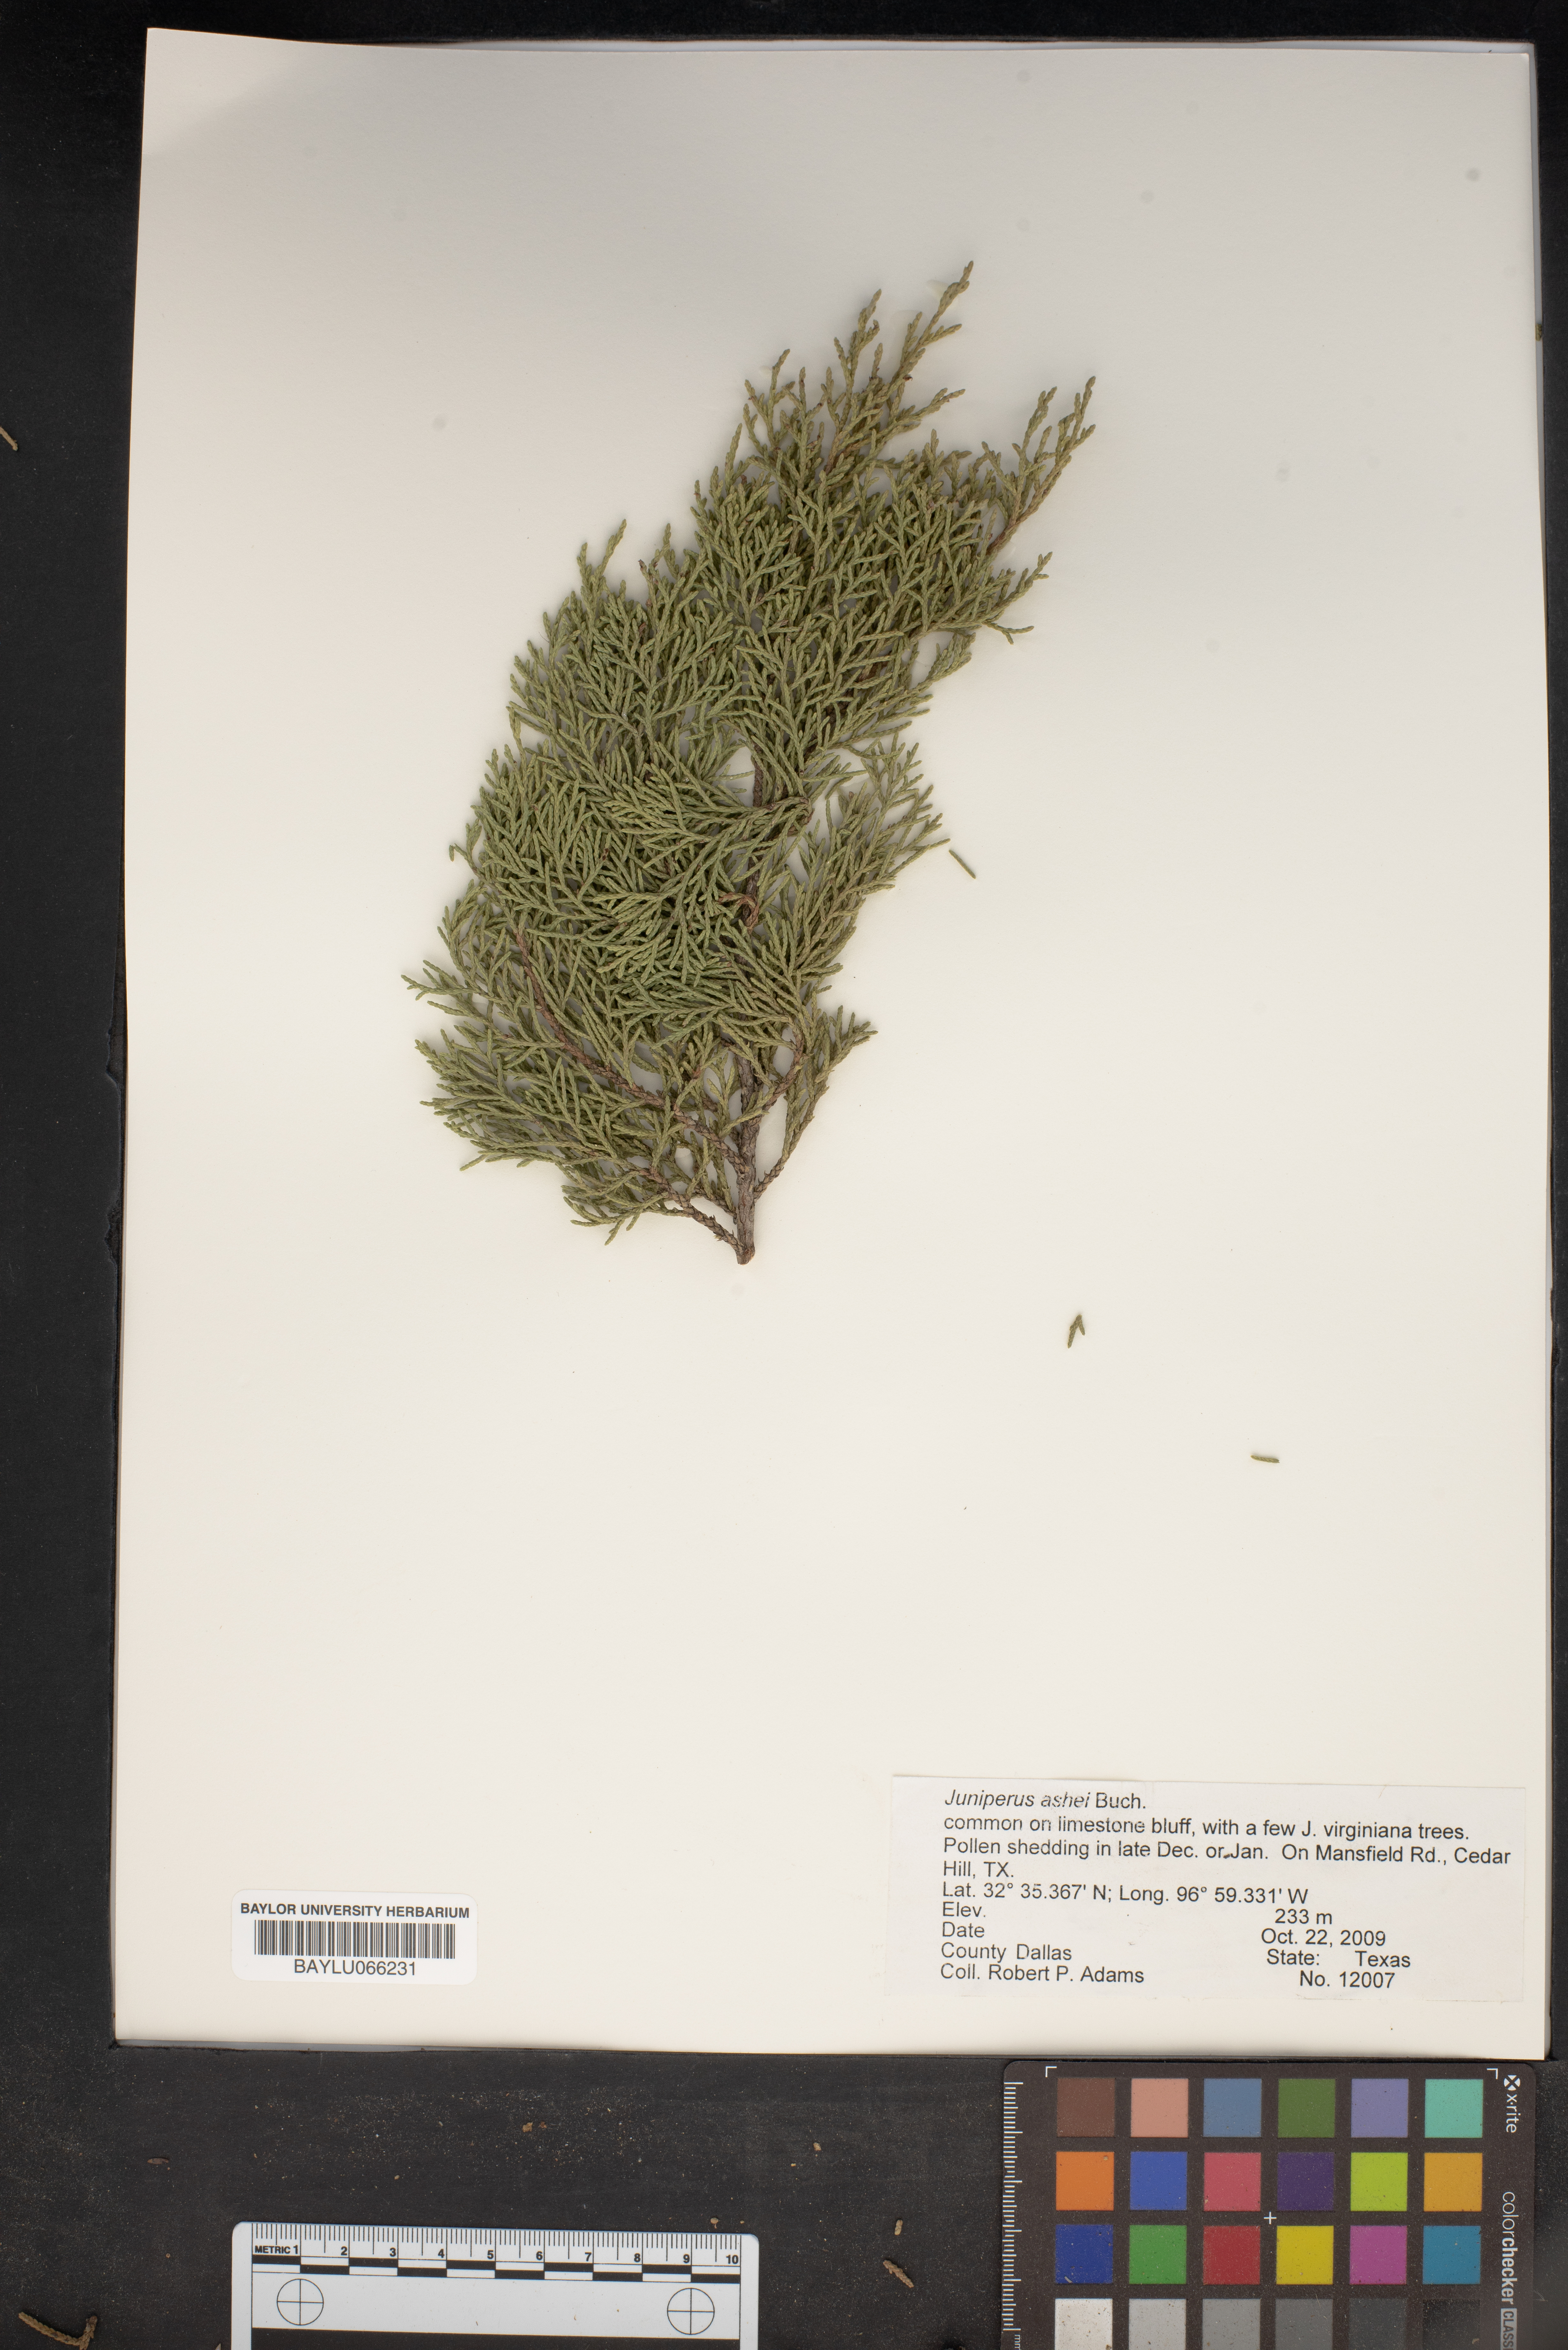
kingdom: Plantae
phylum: Tracheophyta
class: Pinopsida
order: Pinales
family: Cupressaceae
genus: Juniperus
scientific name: Juniperus ashei
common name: Mexican juniper
